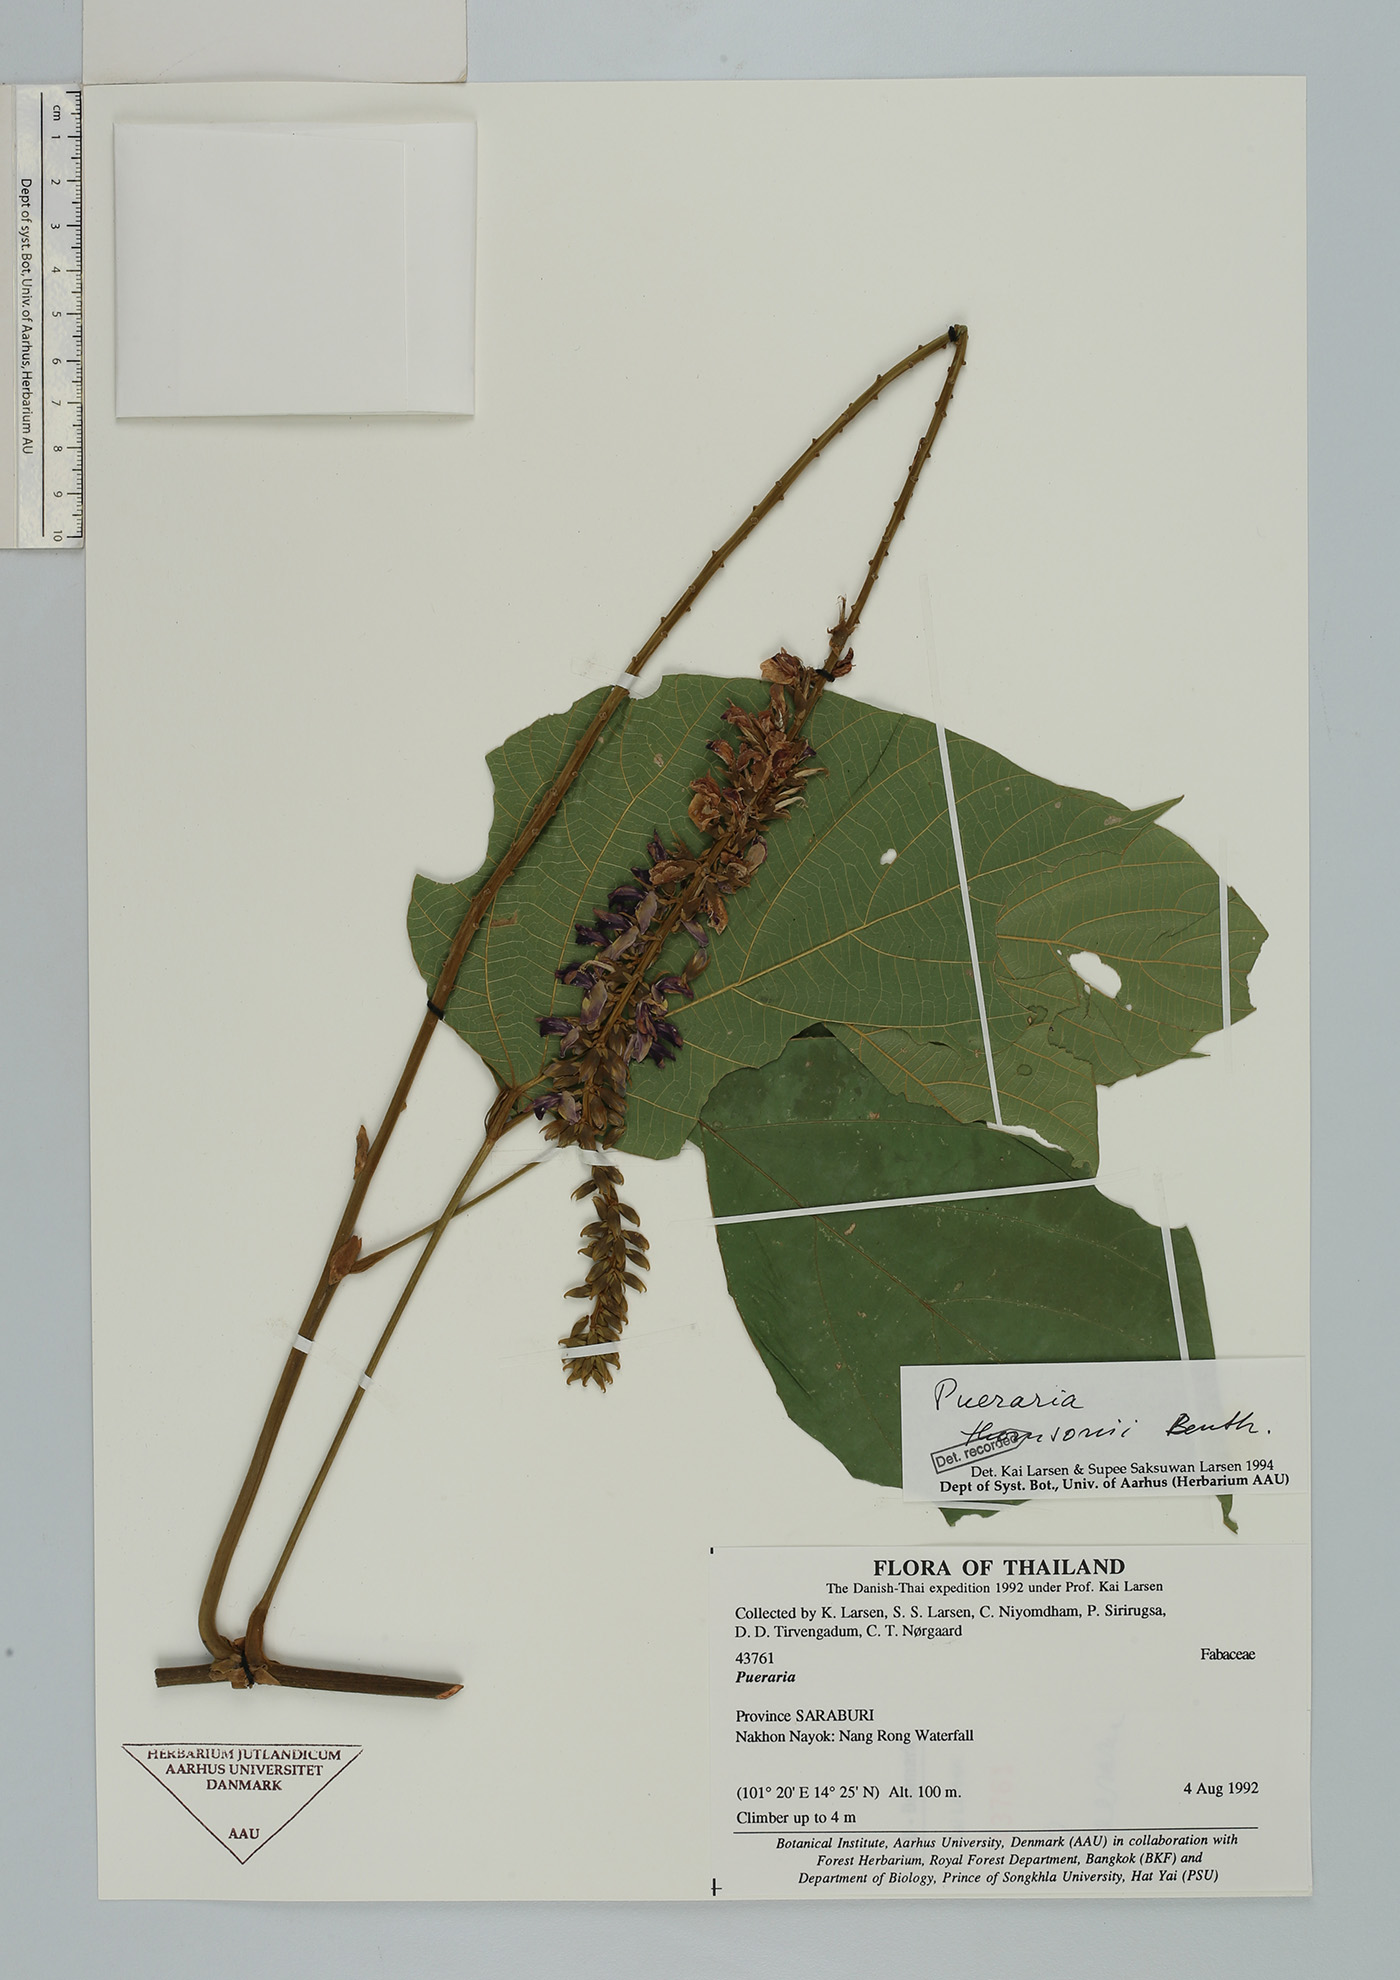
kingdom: Plantae
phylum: Tracheophyta
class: Magnoliopsida
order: Fabales
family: Fabaceae
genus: Pueraria
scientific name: Pueraria montana
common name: Kudzu
